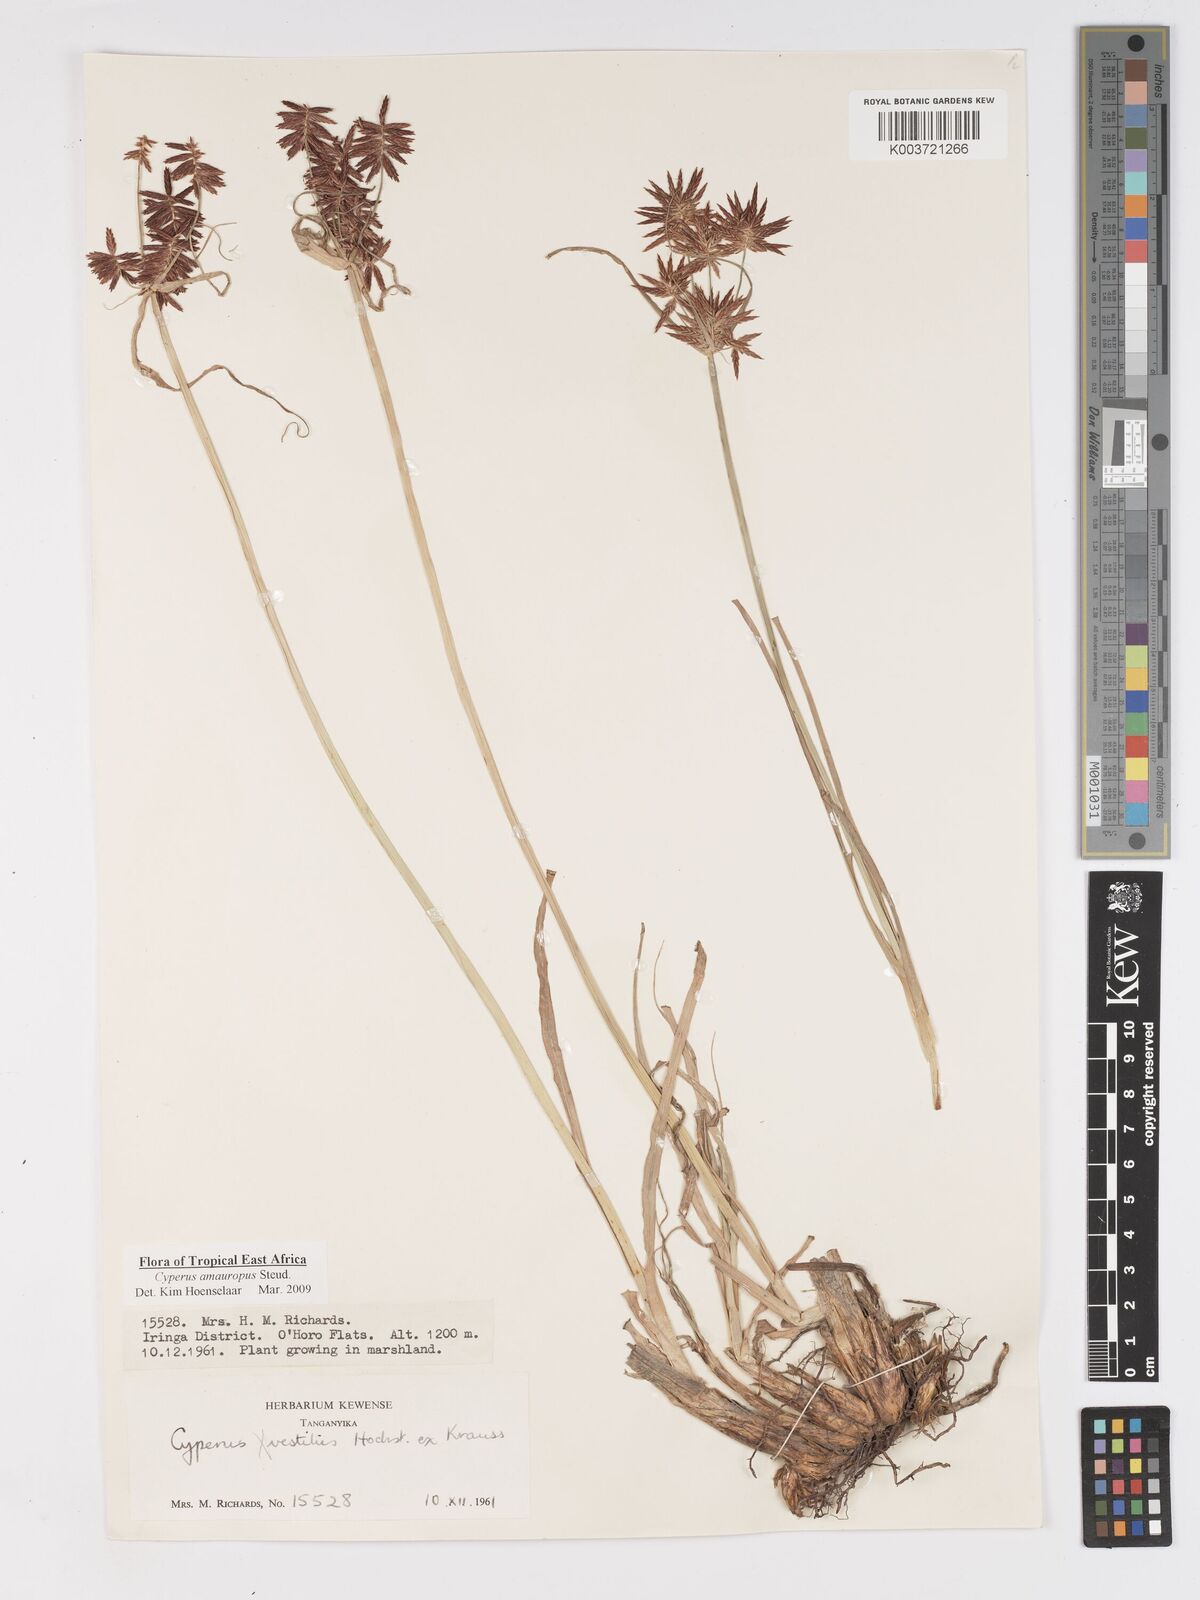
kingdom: Plantae
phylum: Tracheophyta
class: Liliopsida
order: Poales
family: Cyperaceae
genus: Cyperus
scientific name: Cyperus amauropus
